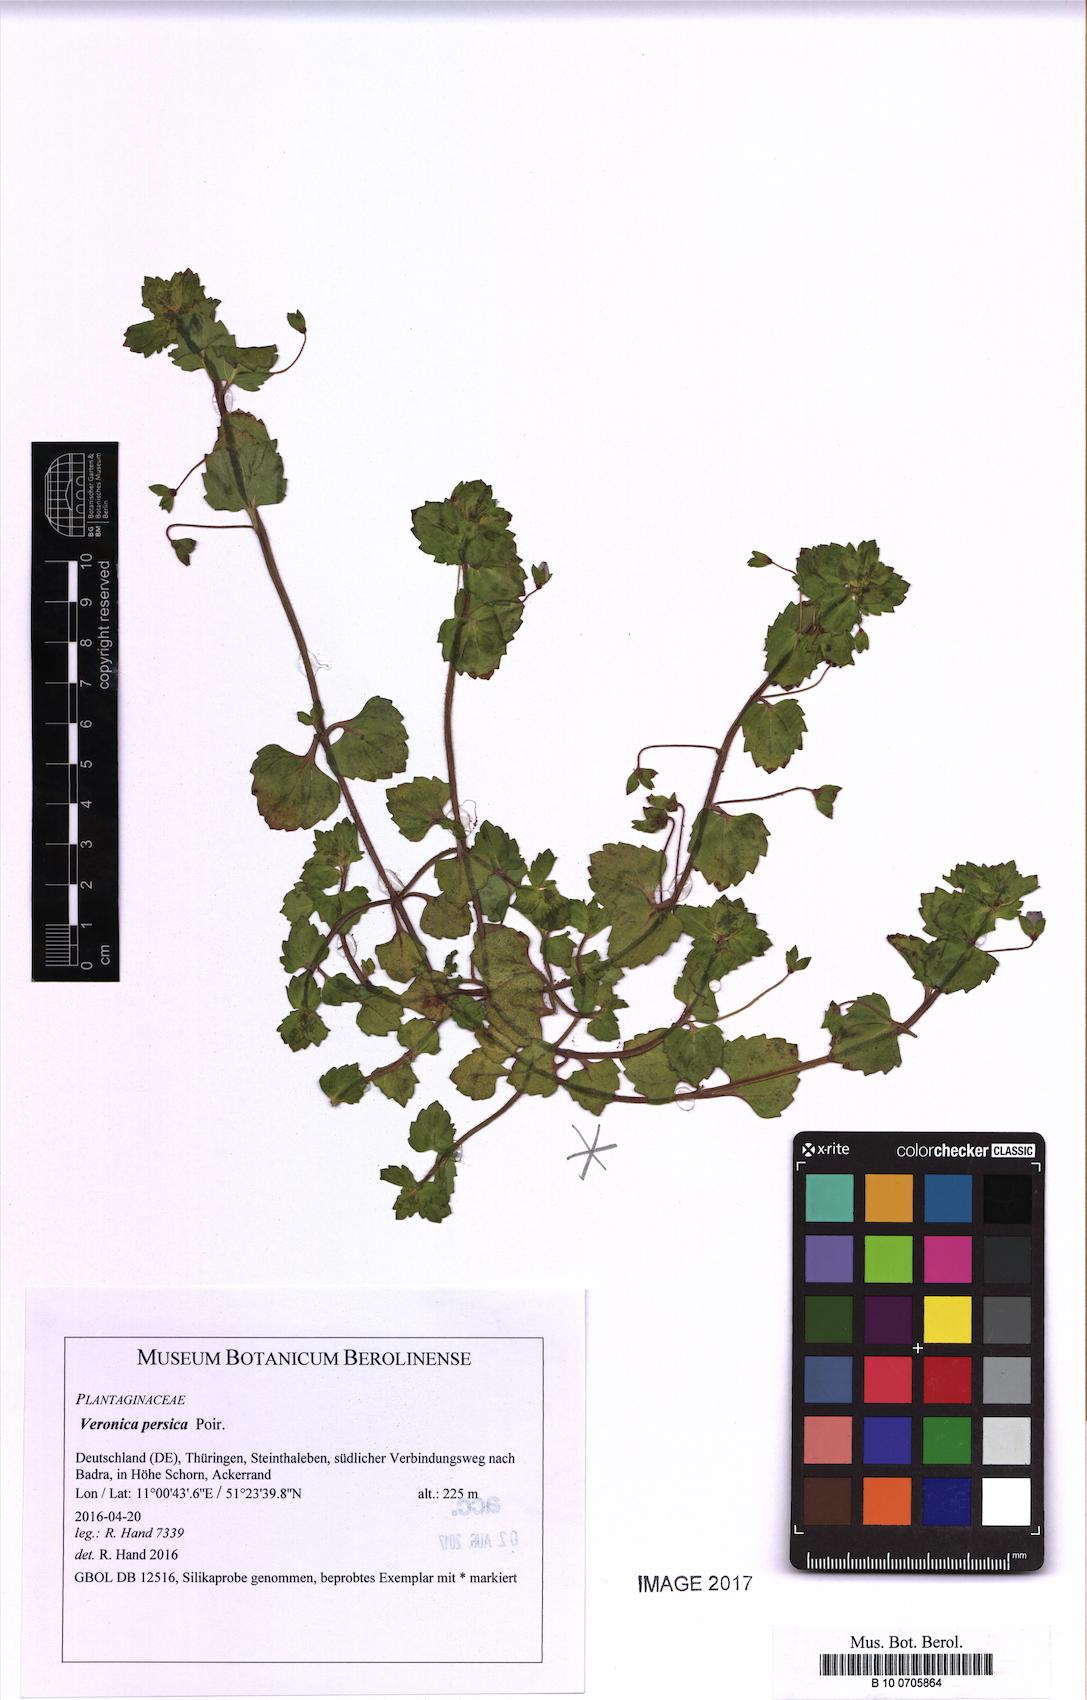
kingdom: Plantae
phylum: Tracheophyta
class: Magnoliopsida
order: Lamiales
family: Plantaginaceae
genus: Veronica
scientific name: Veronica persica
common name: Common field-speedwell
